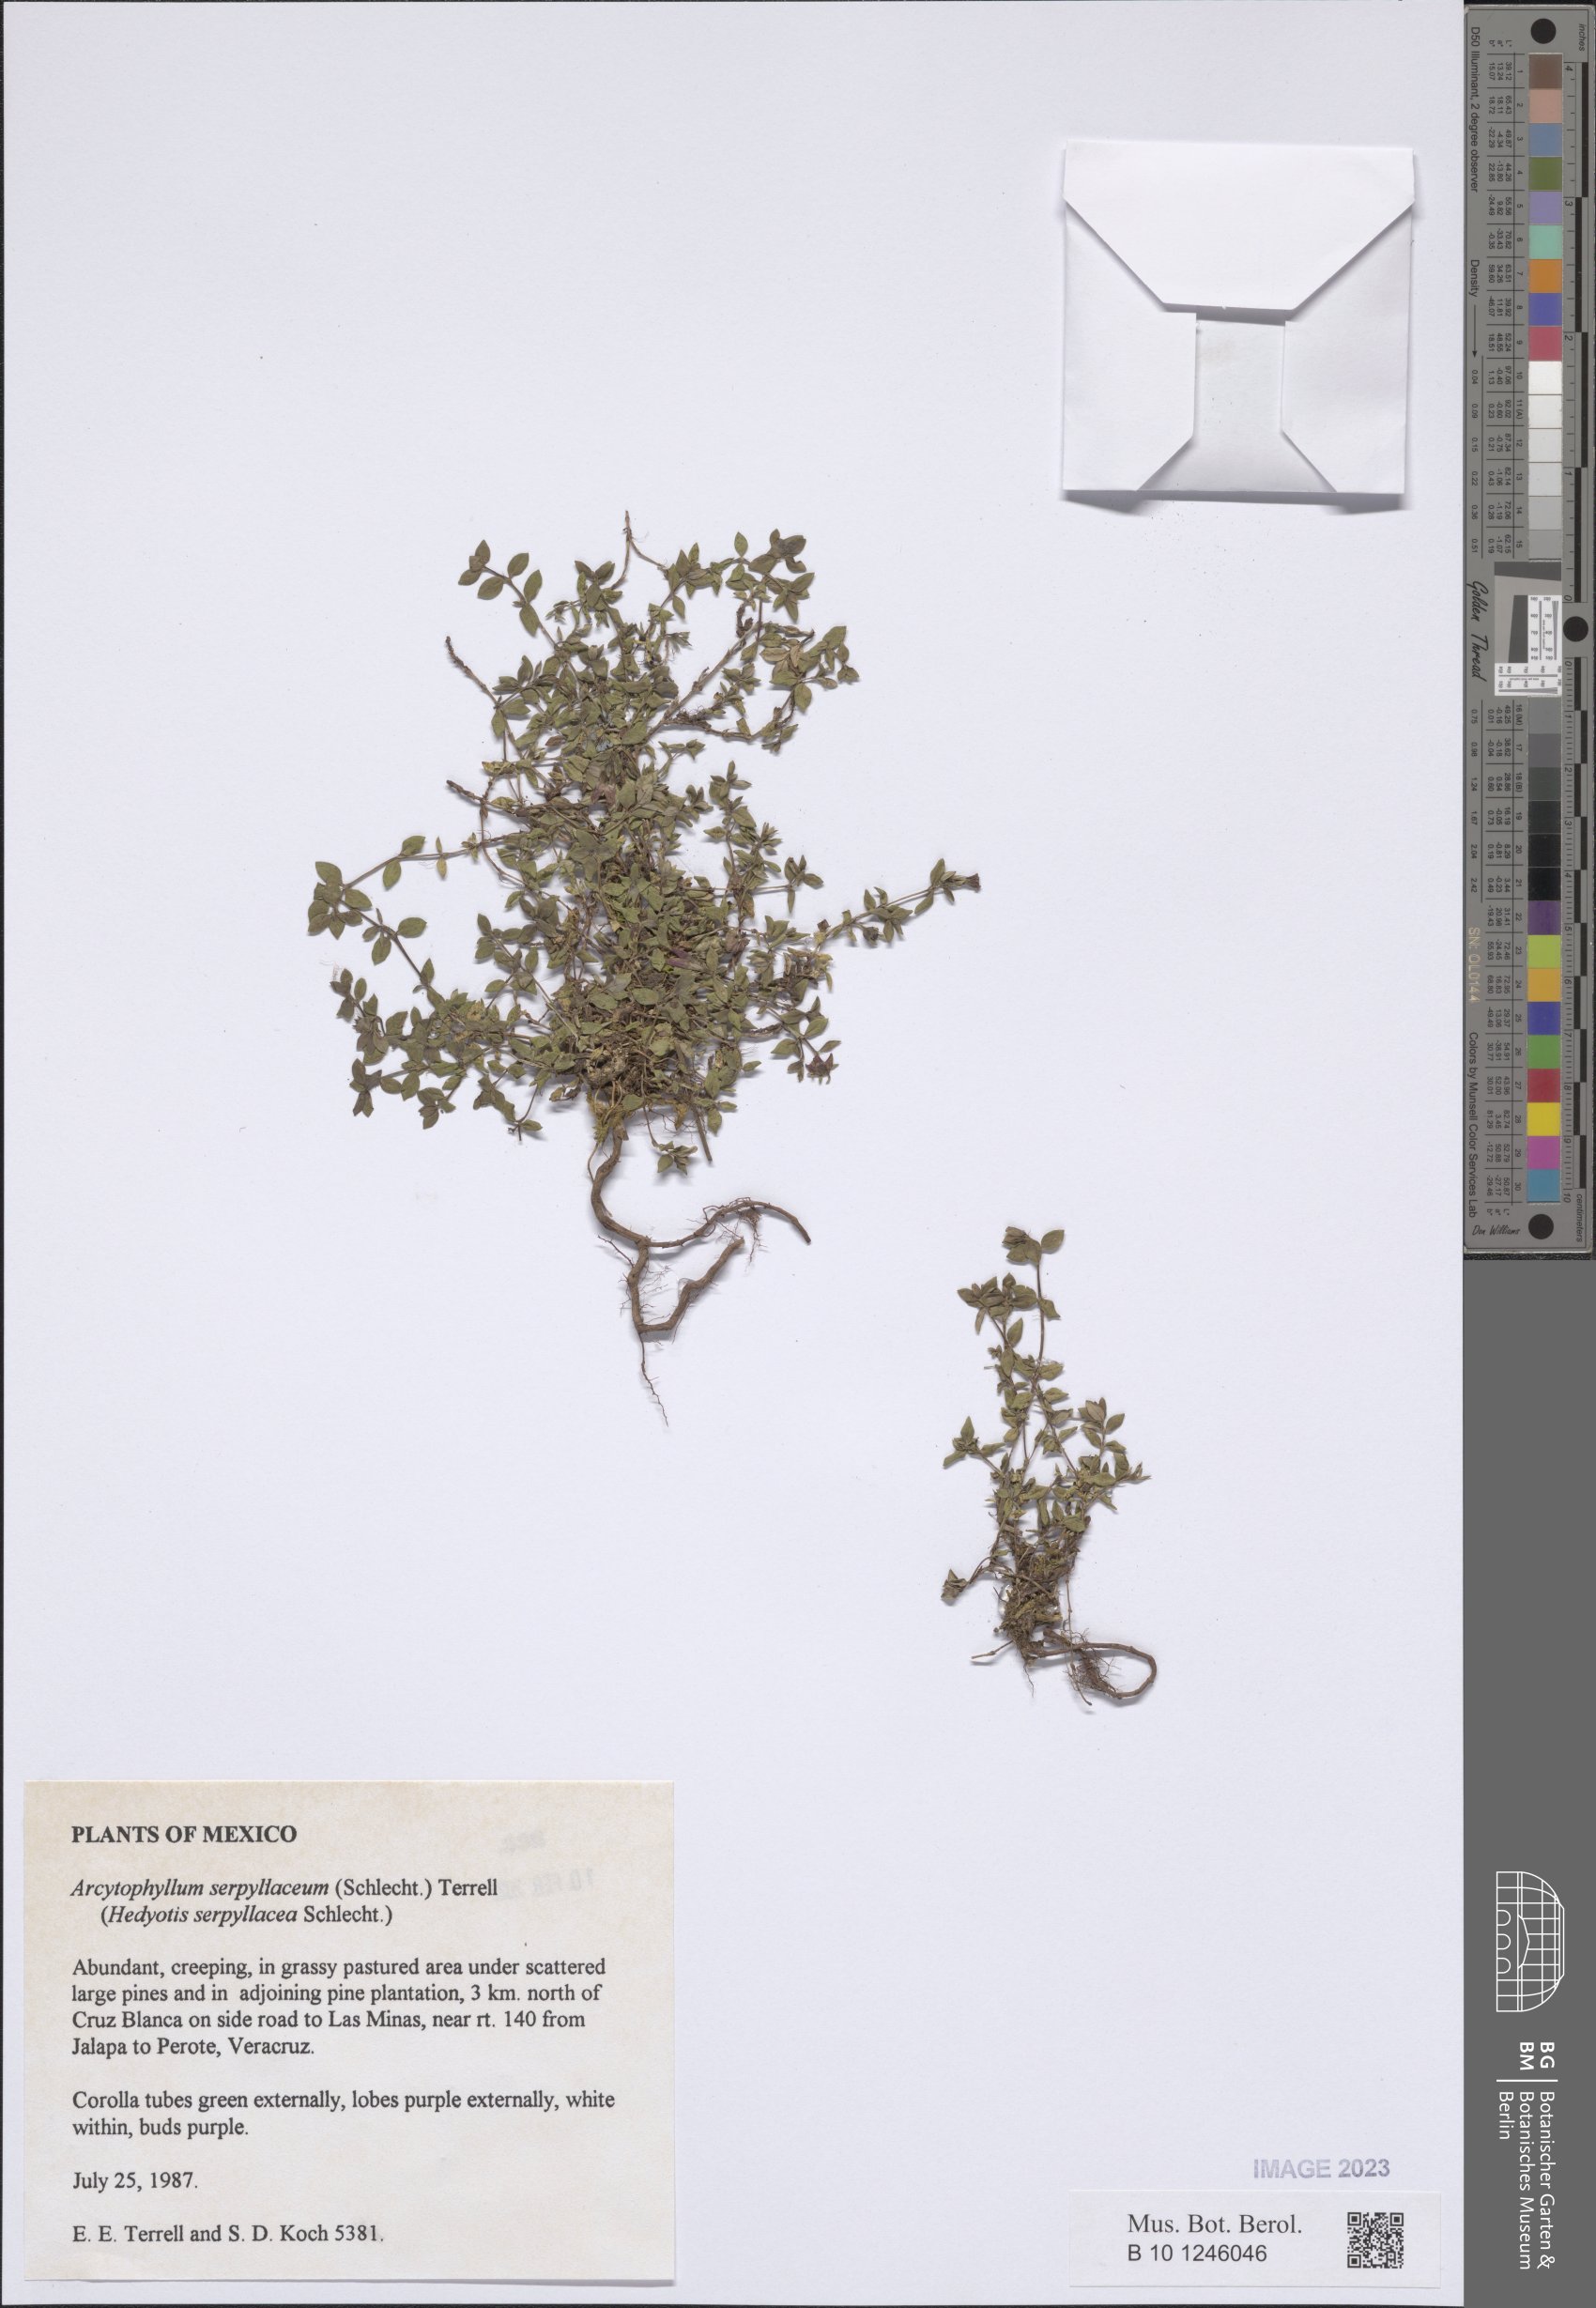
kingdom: Plantae
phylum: Tracheophyta
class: Magnoliopsida
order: Gentianales
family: Rubiaceae
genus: Arcytophyllum
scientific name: Arcytophyllum serpyllaceum
